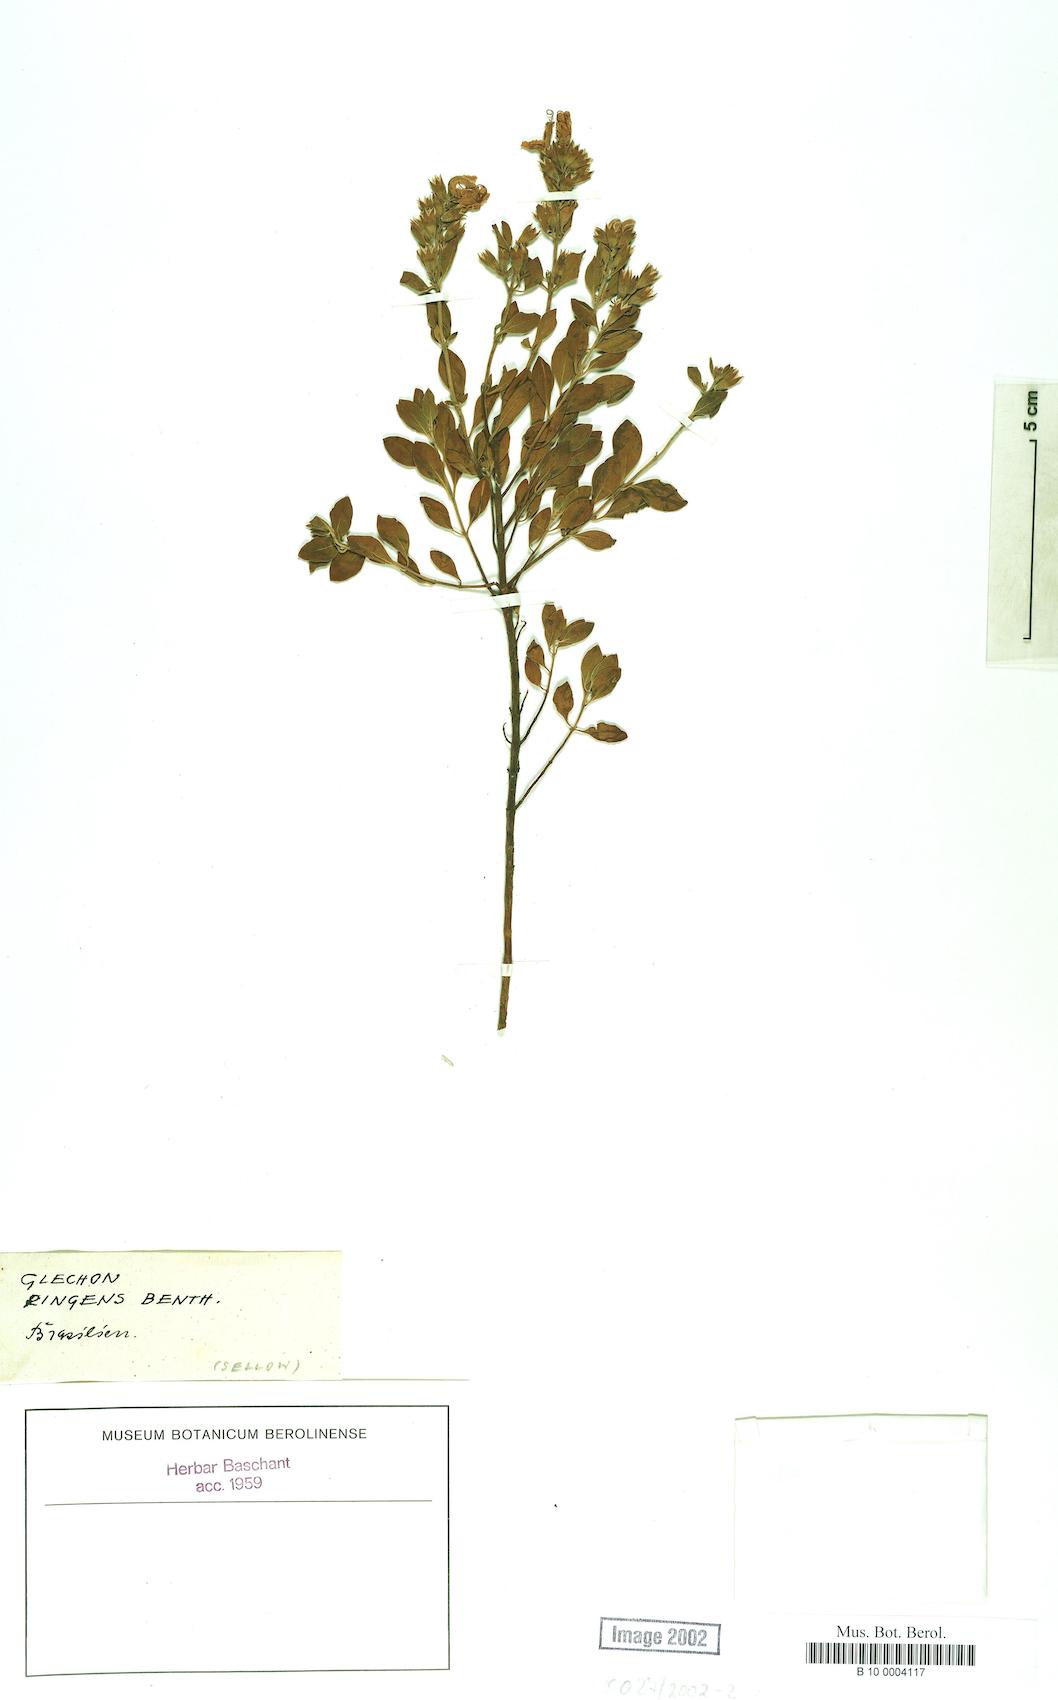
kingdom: Plantae
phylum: Tracheophyta
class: Magnoliopsida
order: Lamiales
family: Lamiaceae
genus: Glechon
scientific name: Glechon
